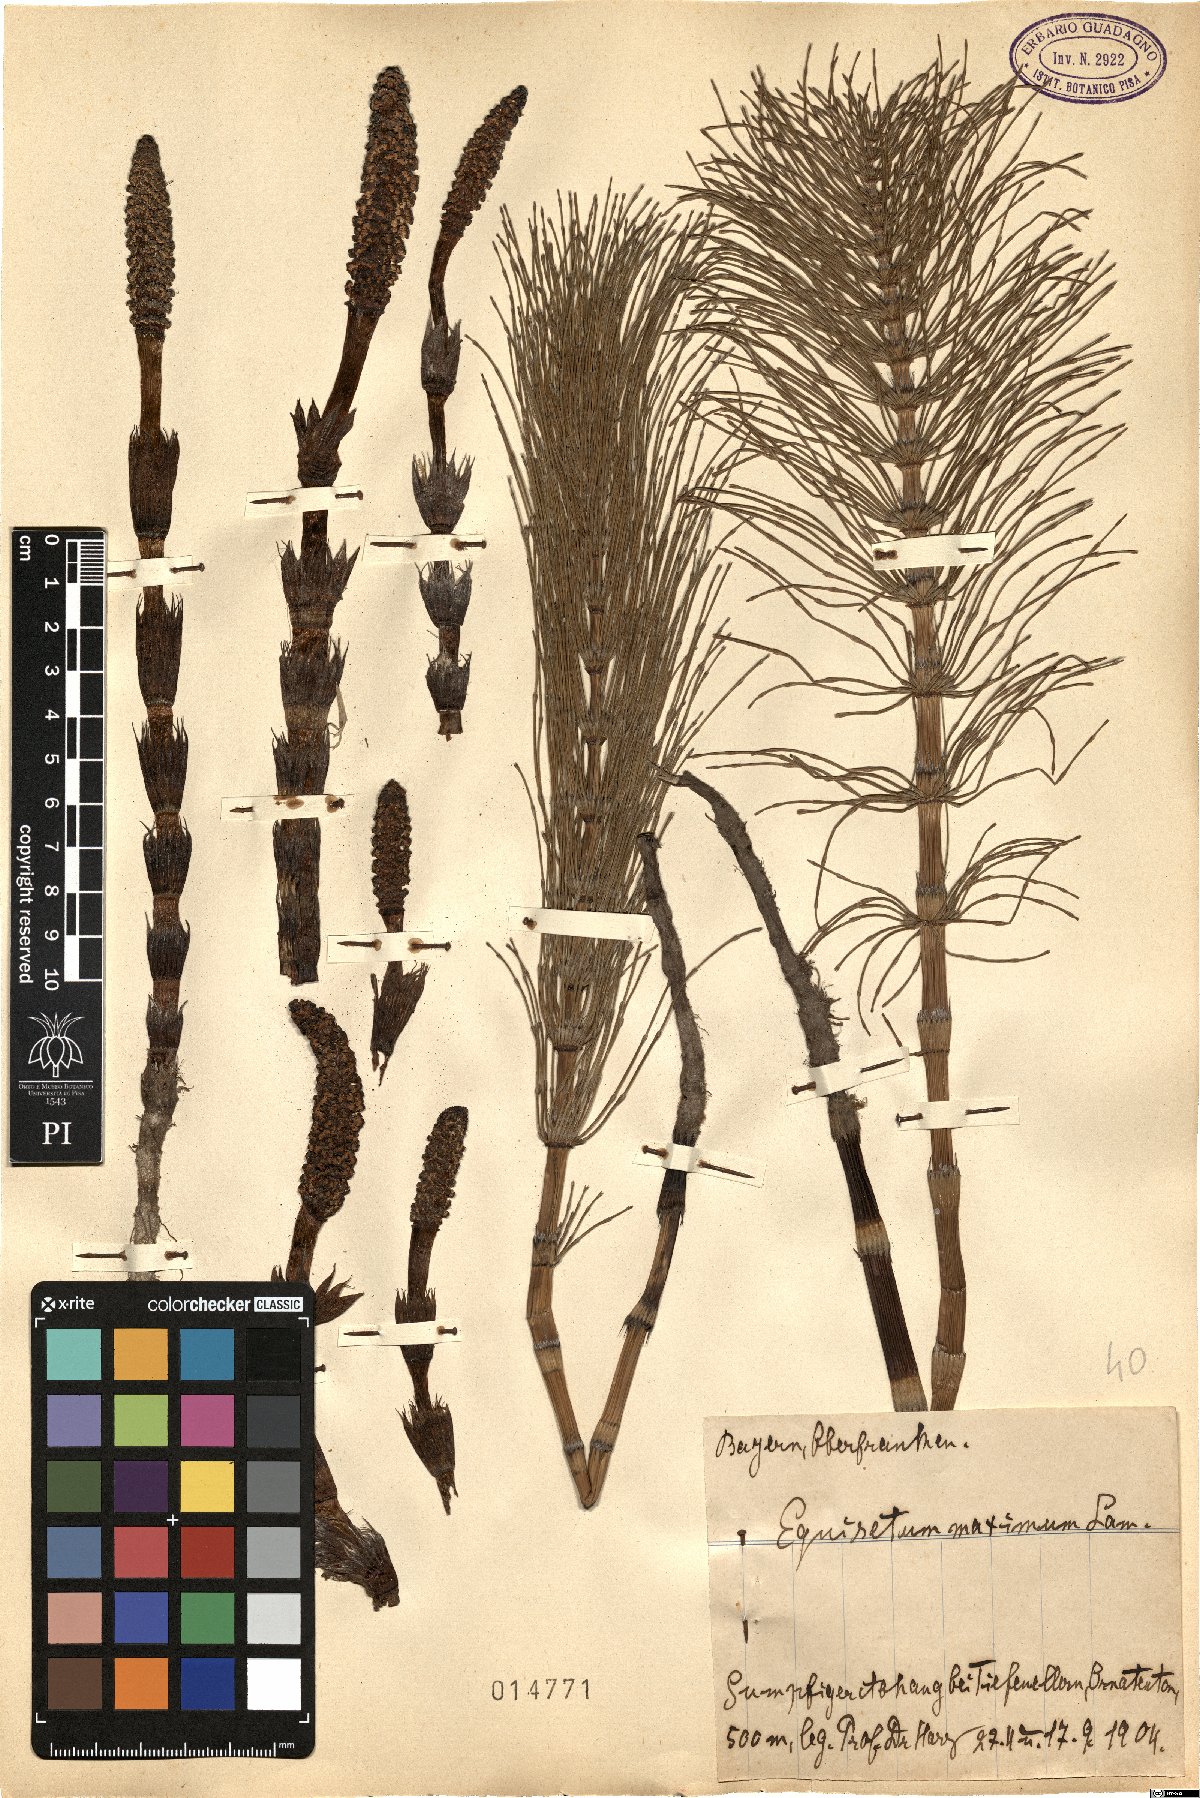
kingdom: Plantae
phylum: Tracheophyta
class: Polypodiopsida
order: Equisetales
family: Equisetaceae
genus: Equisetum
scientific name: Equisetum telmateia
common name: Great horsetail
